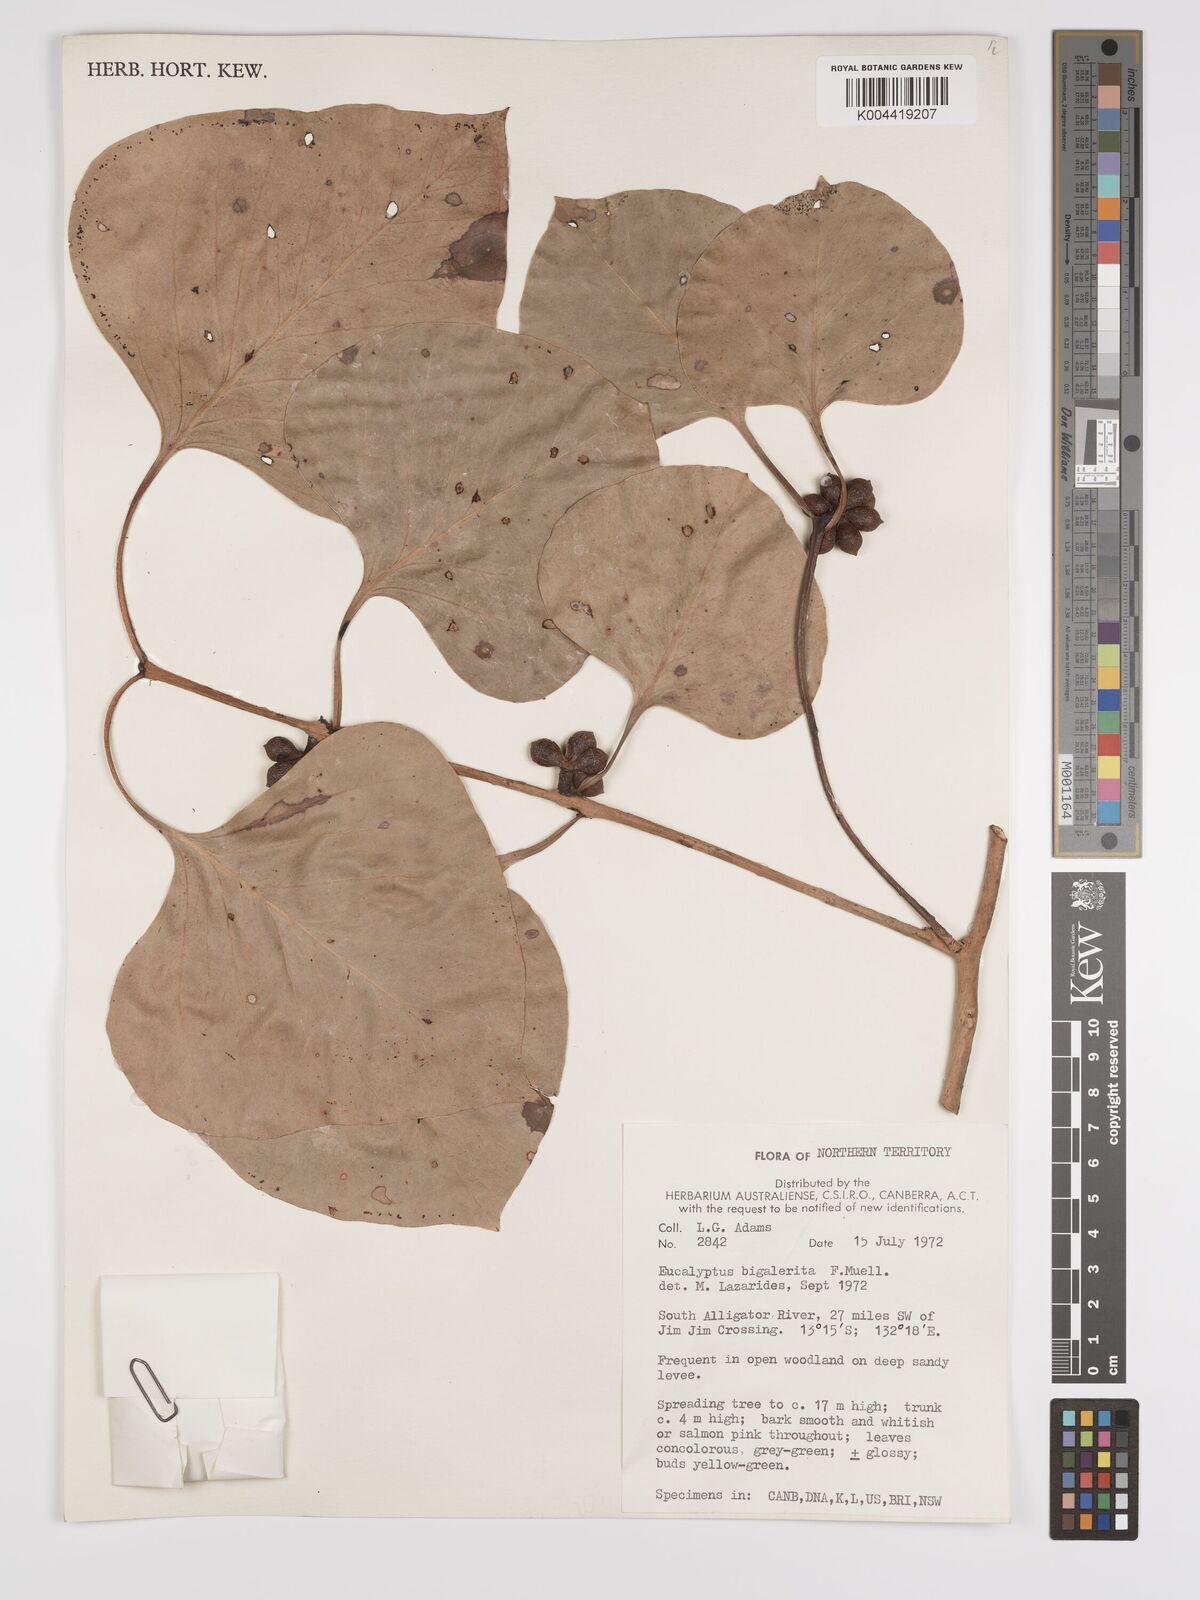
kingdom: Plantae
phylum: Tracheophyta
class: Magnoliopsida
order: Myrtales
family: Myrtaceae
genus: Eucalyptus
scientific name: Eucalyptus bigalerita
